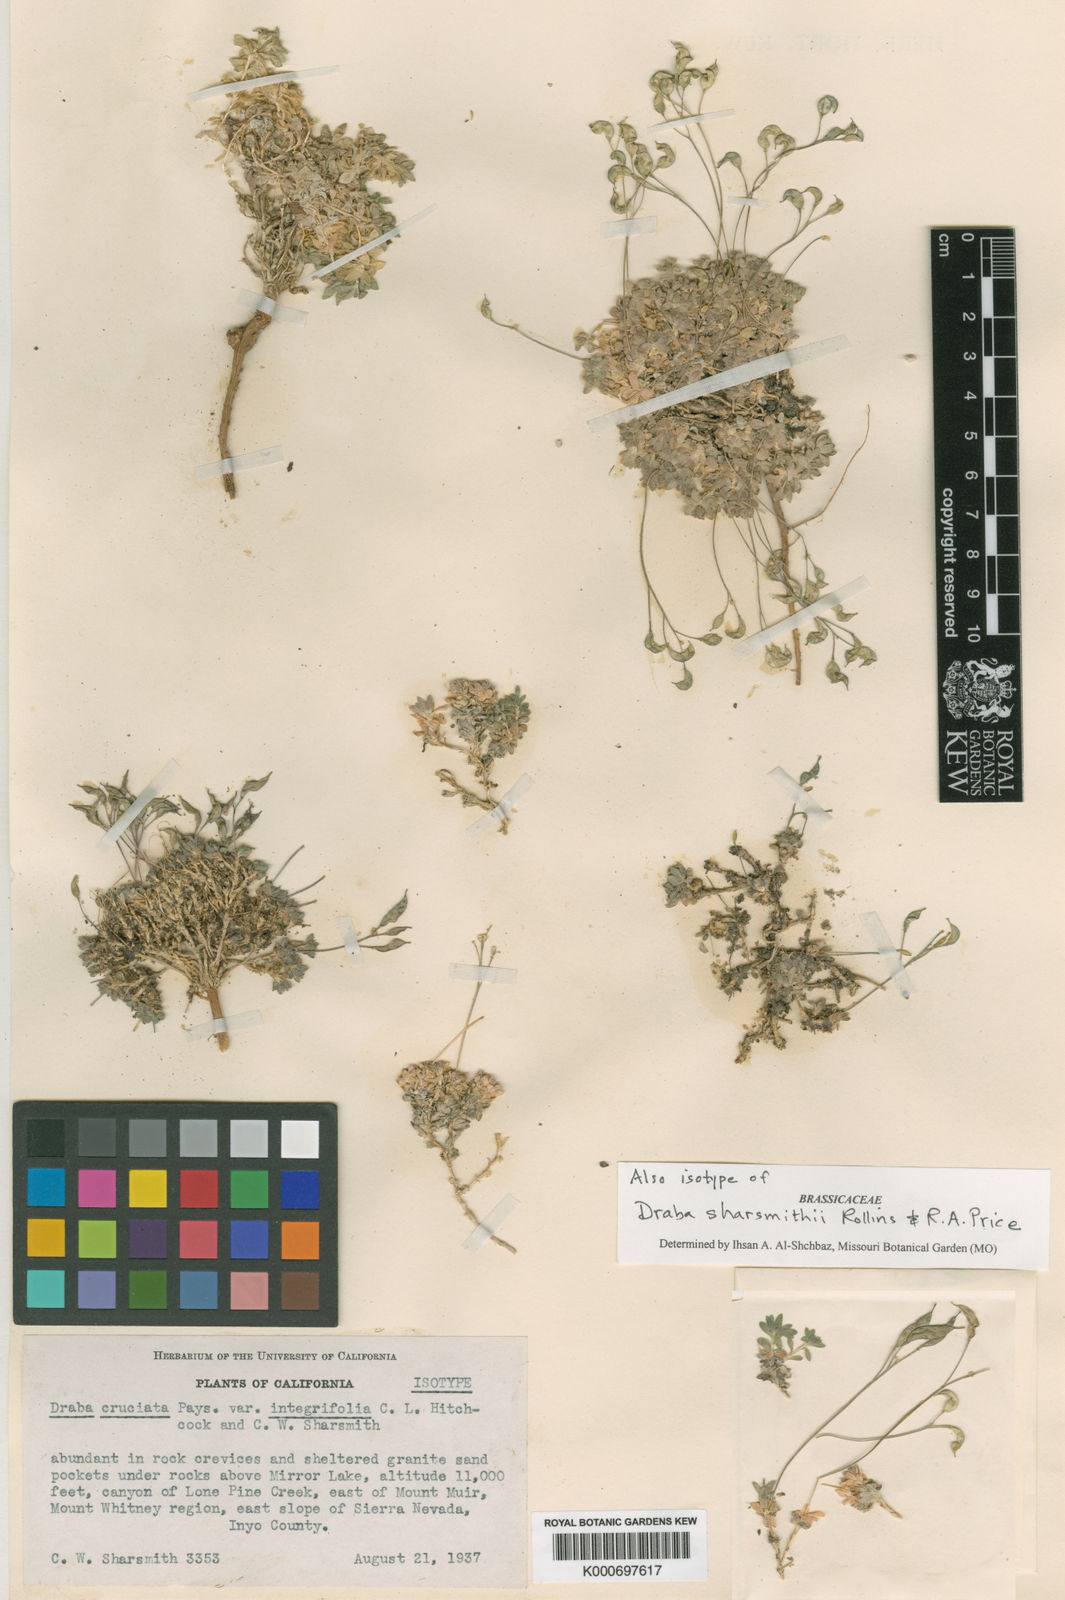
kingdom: Plantae
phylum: Tracheophyta
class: Magnoliopsida
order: Brassicales
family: Brassicaceae
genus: Draba
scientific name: Draba sharsmithii
